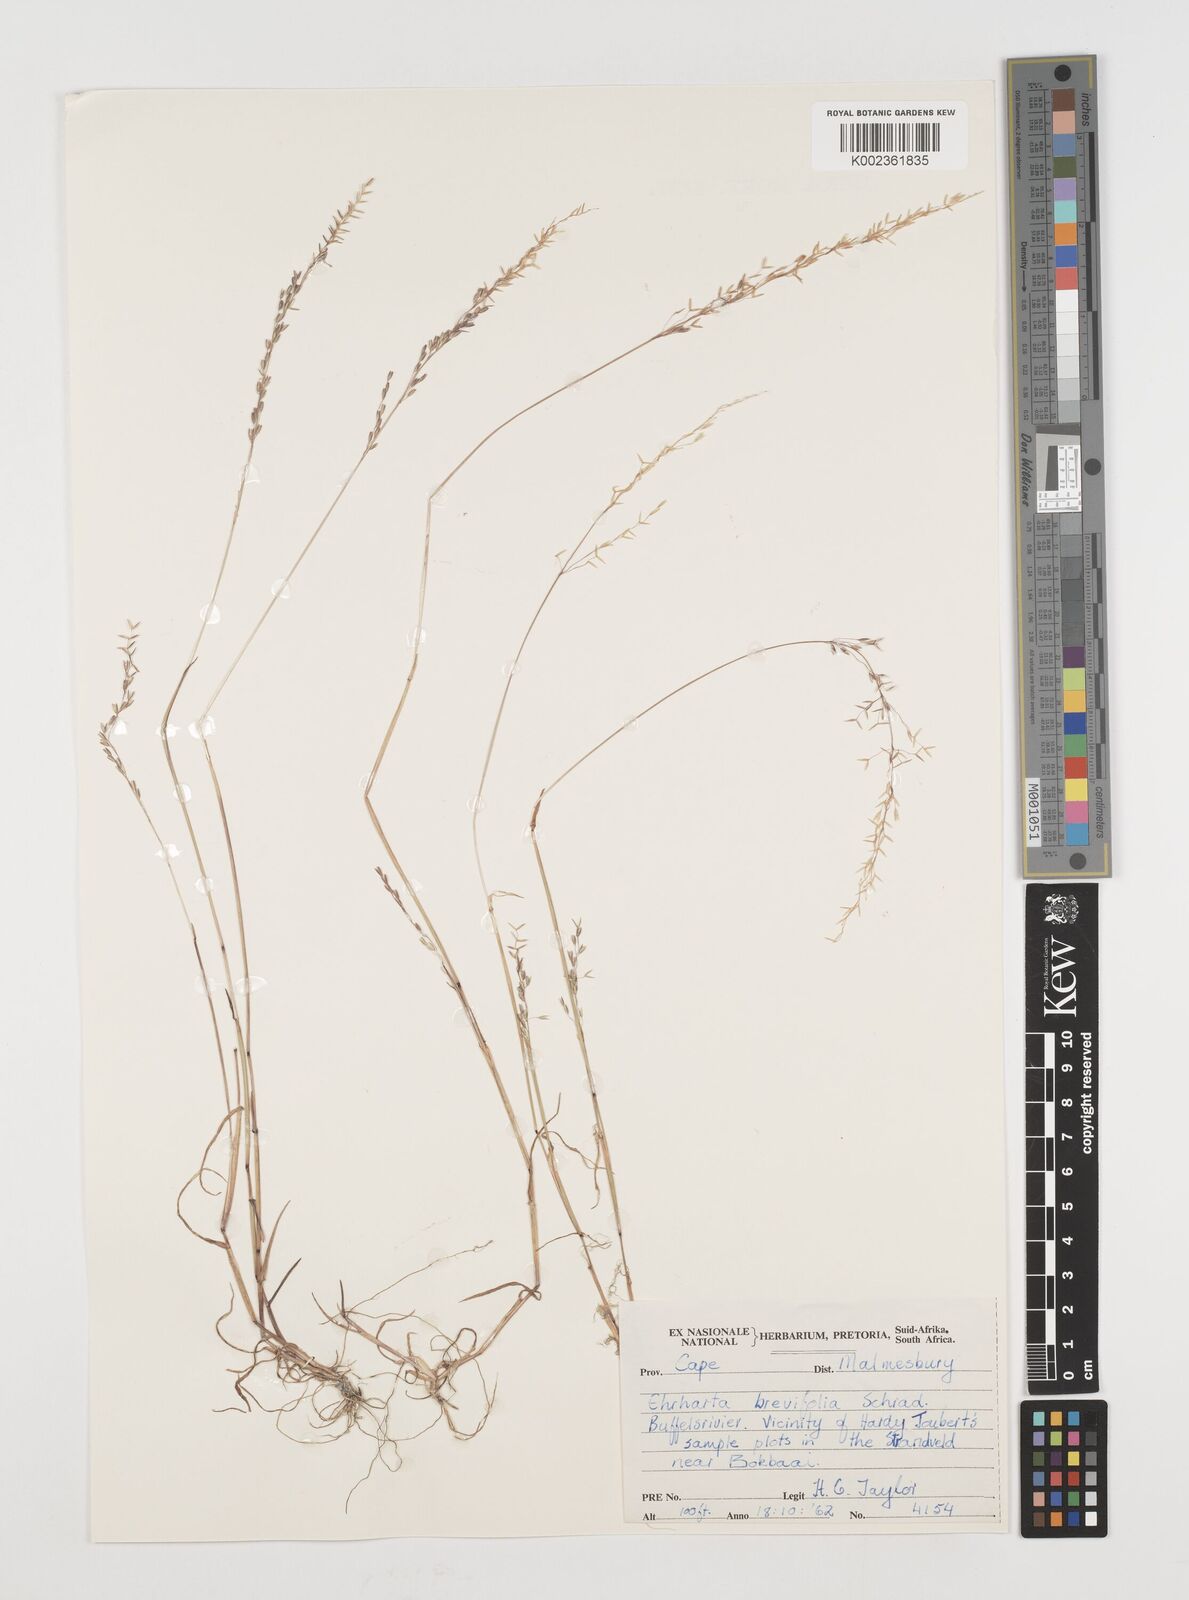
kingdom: Plantae
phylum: Tracheophyta
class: Liliopsida
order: Poales
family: Poaceae
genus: Ehrharta
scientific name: Ehrharta brevifolia
